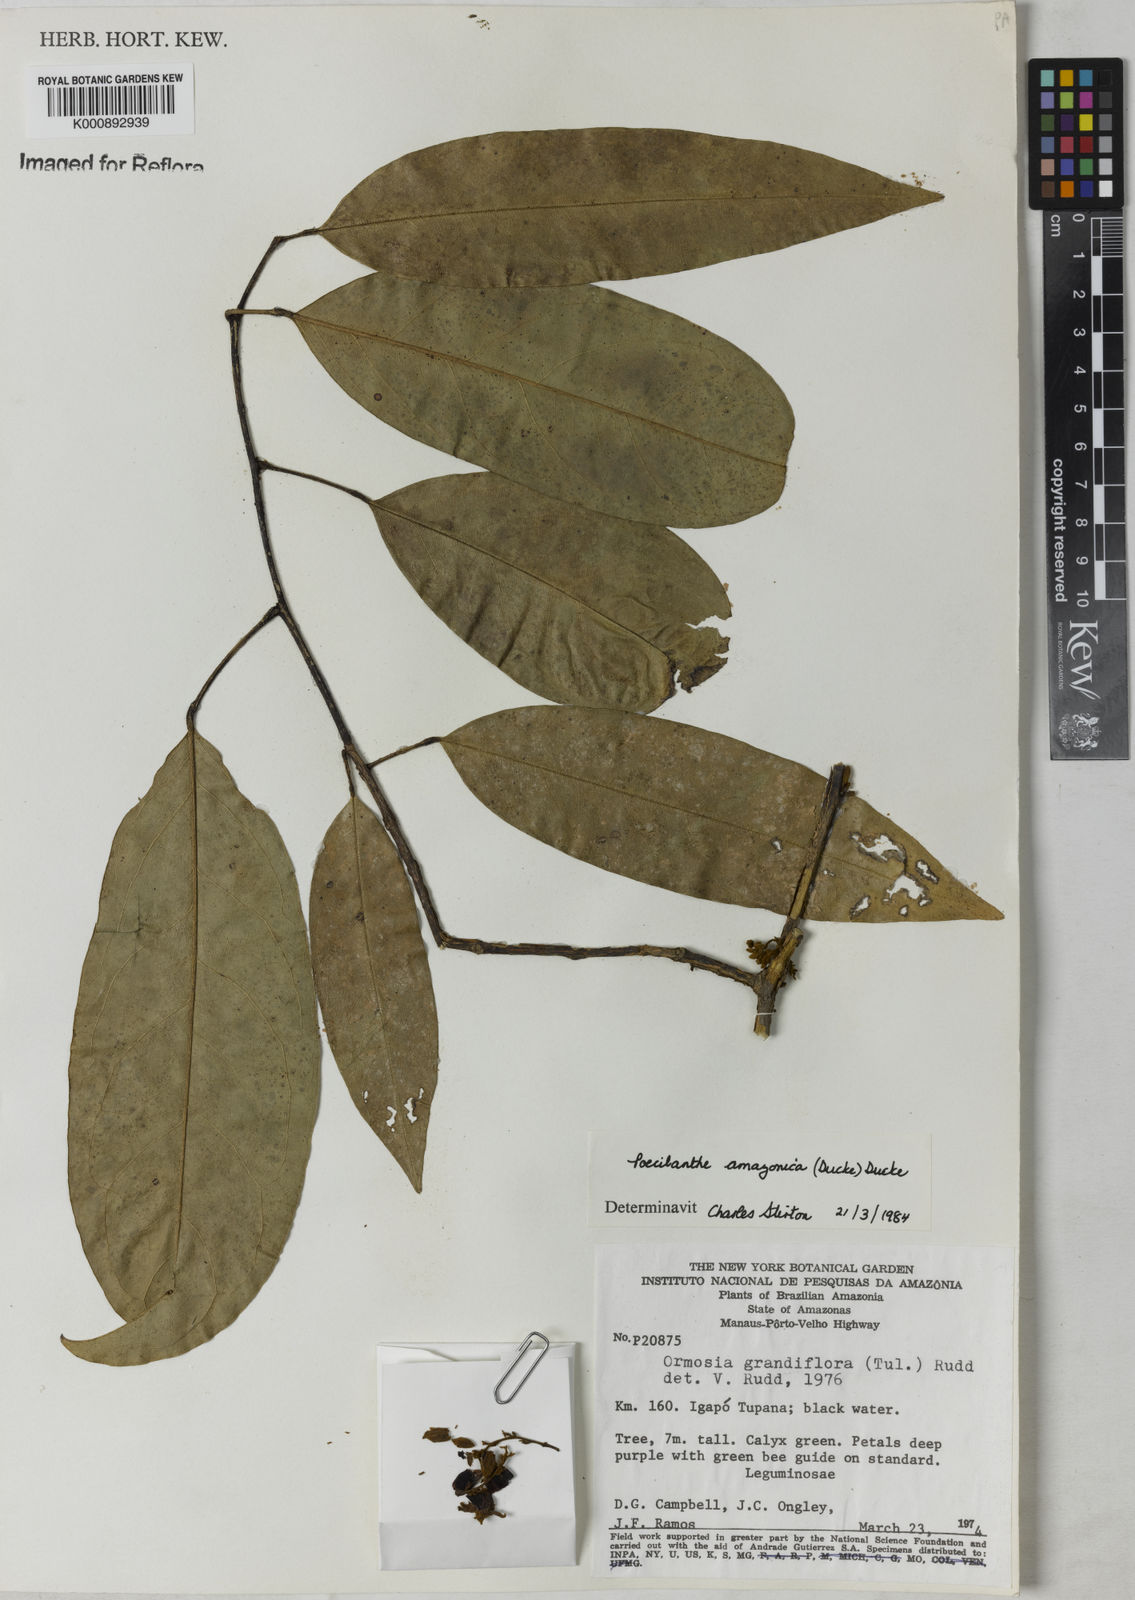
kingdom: Plantae
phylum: Tracheophyta
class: Magnoliopsida
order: Fabales
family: Fabaceae
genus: Limadendron
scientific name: Limadendron amazonicum
